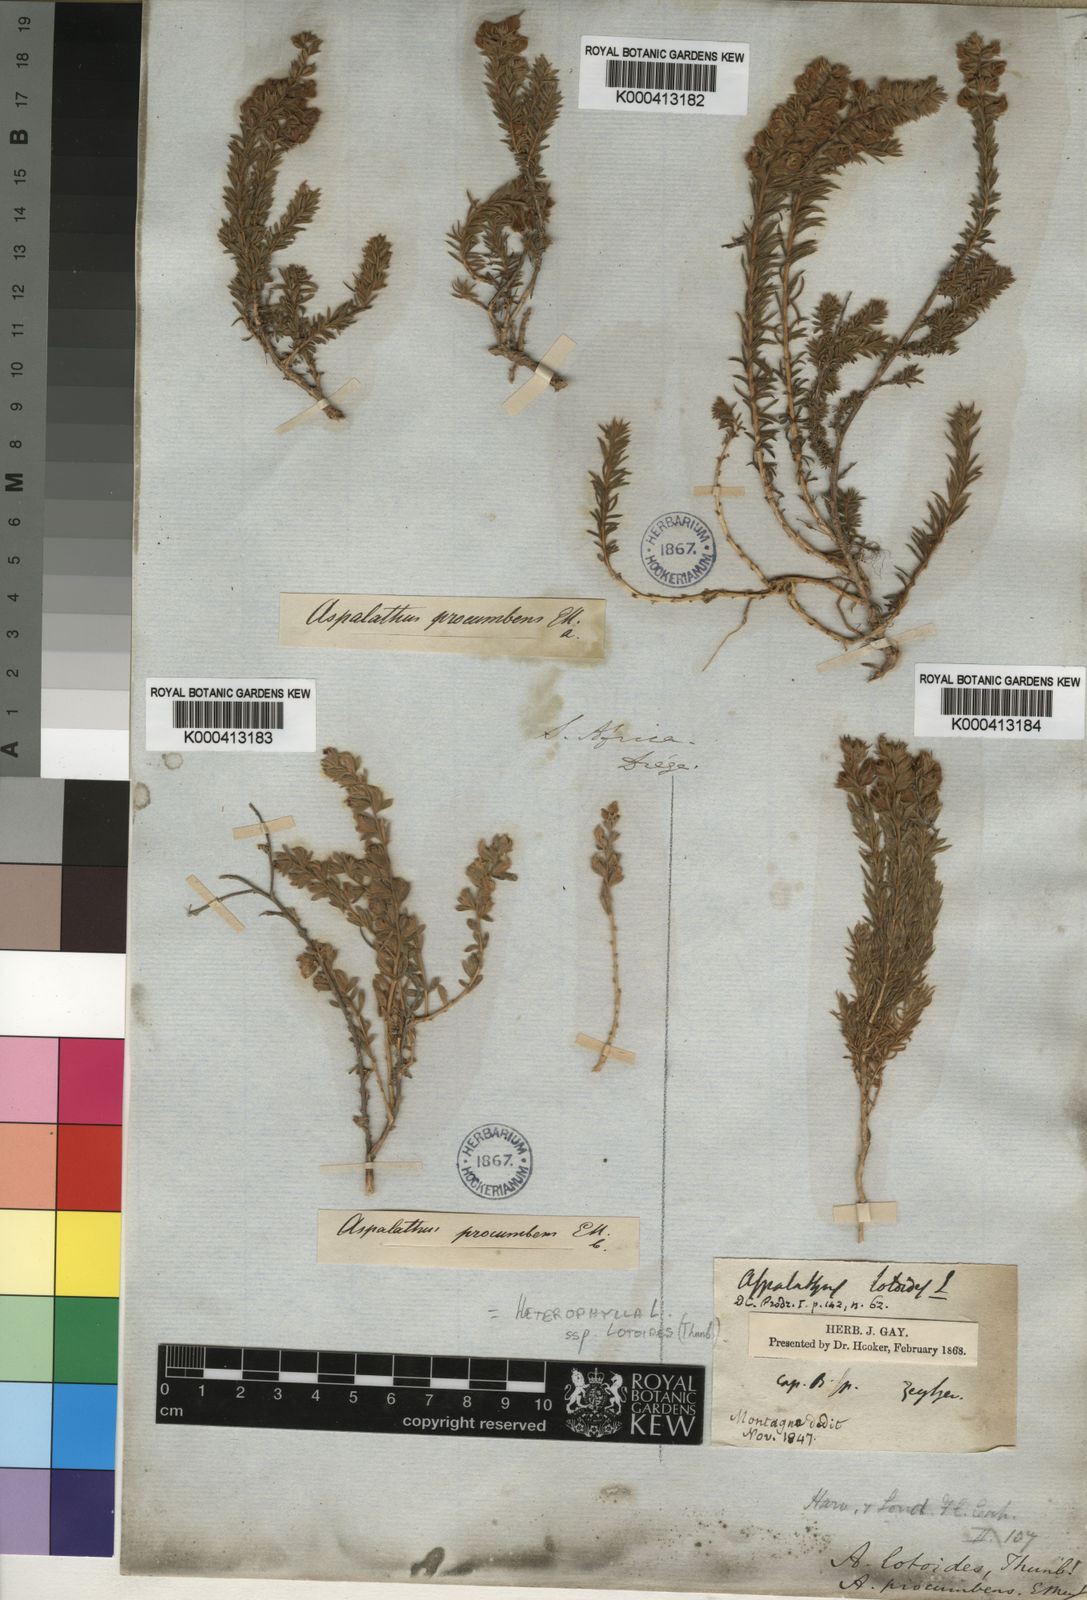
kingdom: Plantae
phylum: Tracheophyta
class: Magnoliopsida
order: Fabales
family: Fabaceae
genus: Aspalathus
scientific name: Aspalathus heterophylla
